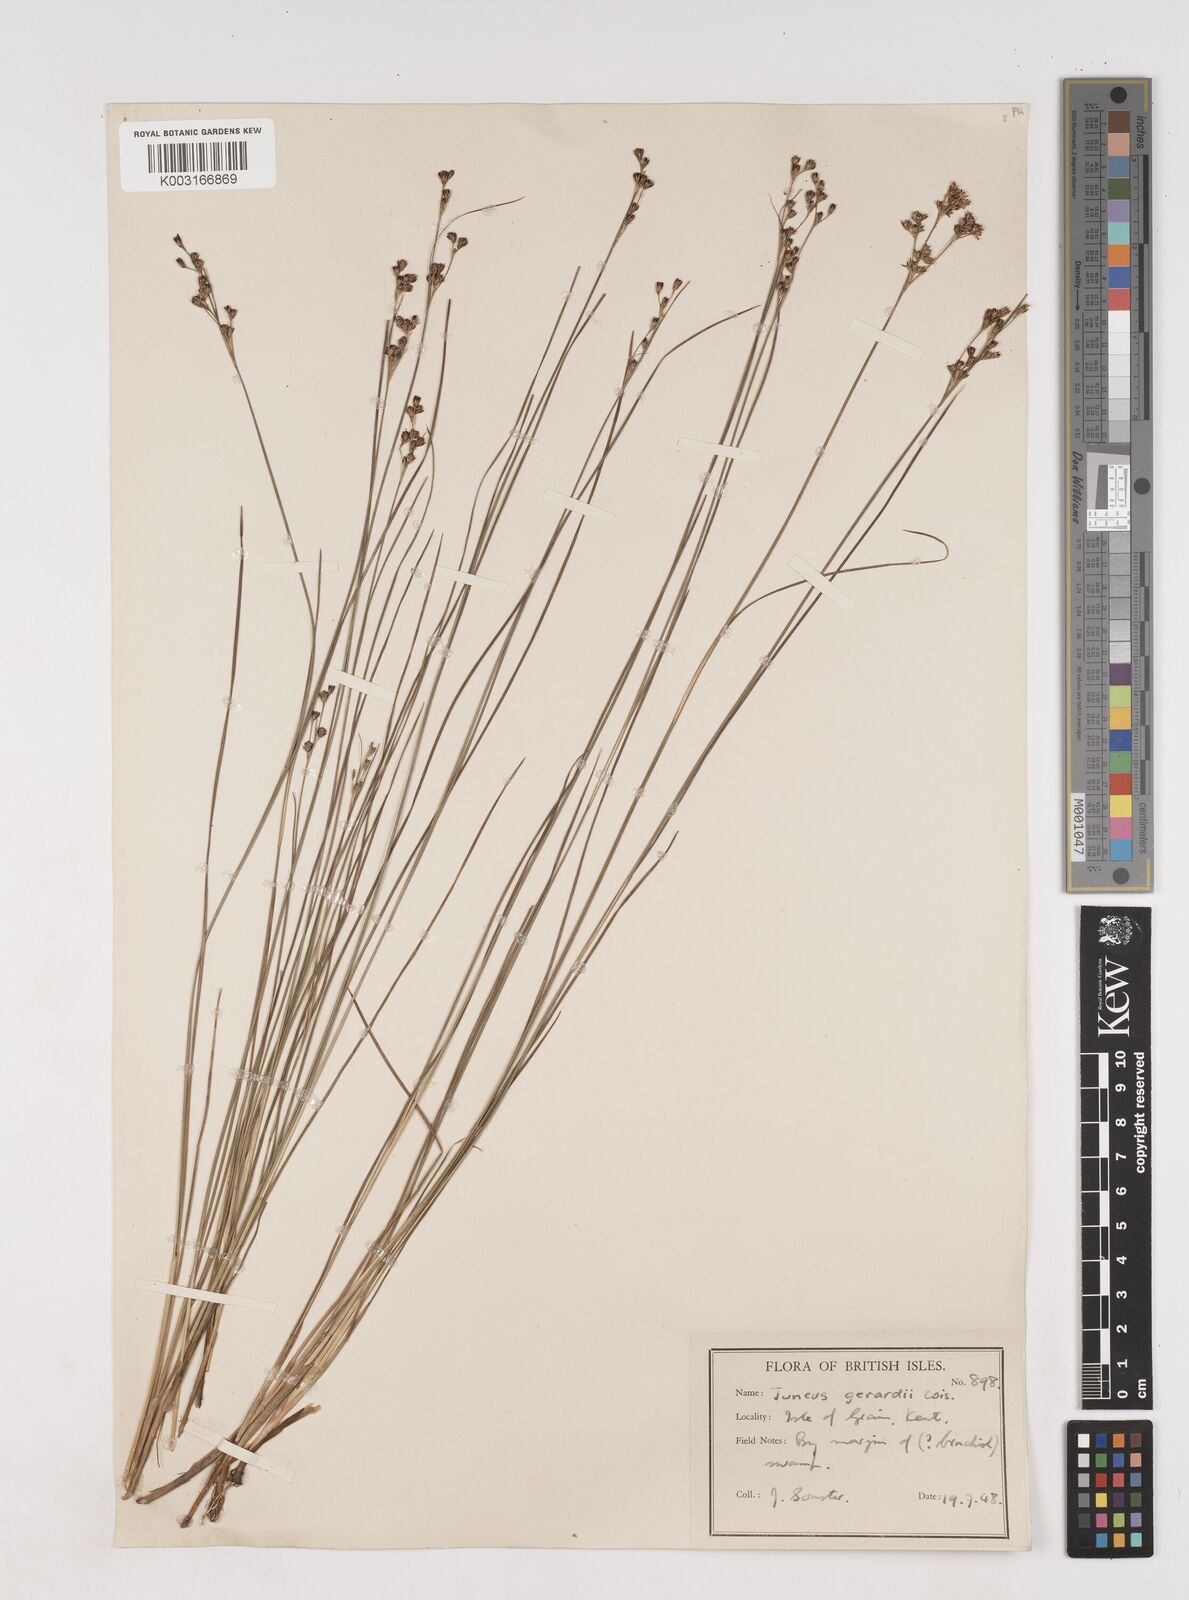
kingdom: Plantae
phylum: Tracheophyta
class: Liliopsida
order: Poales
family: Juncaceae
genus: Juncus
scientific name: Juncus gerardi
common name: Saltmarsh rush
